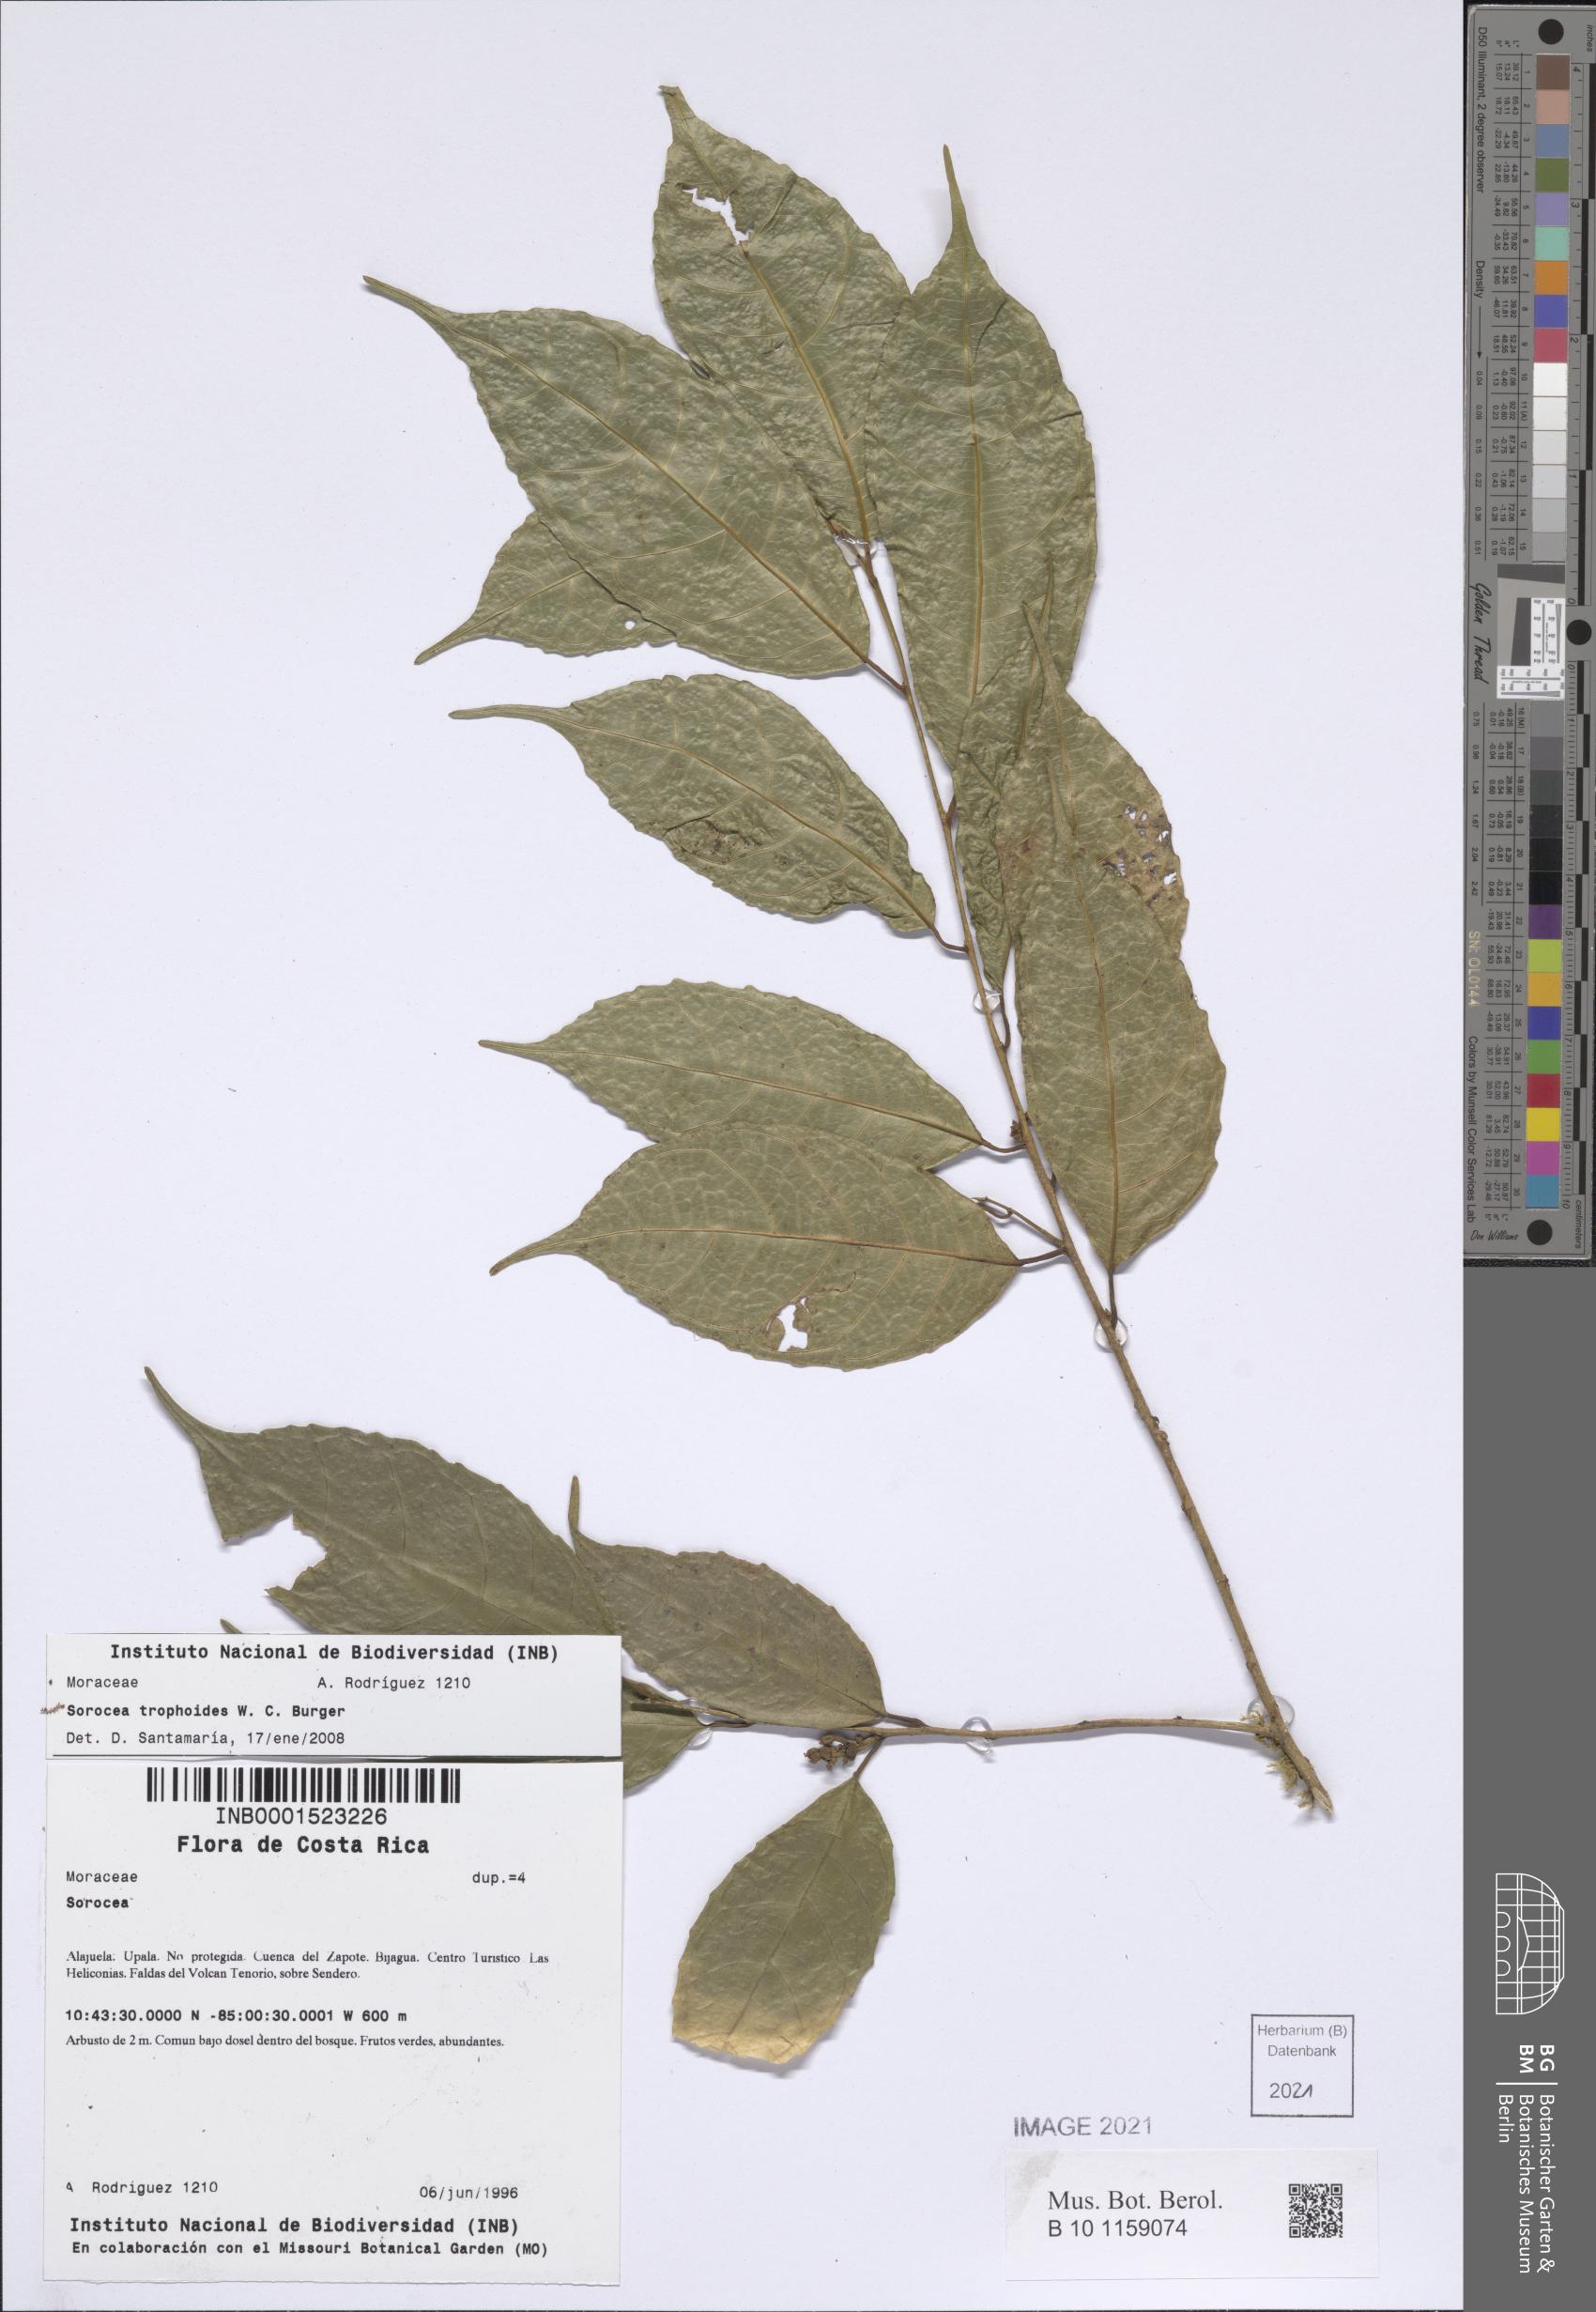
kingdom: Plantae
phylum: Tracheophyta
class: Magnoliopsida
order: Rosales
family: Moraceae
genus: Sorocea
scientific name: Sorocea trophoides
